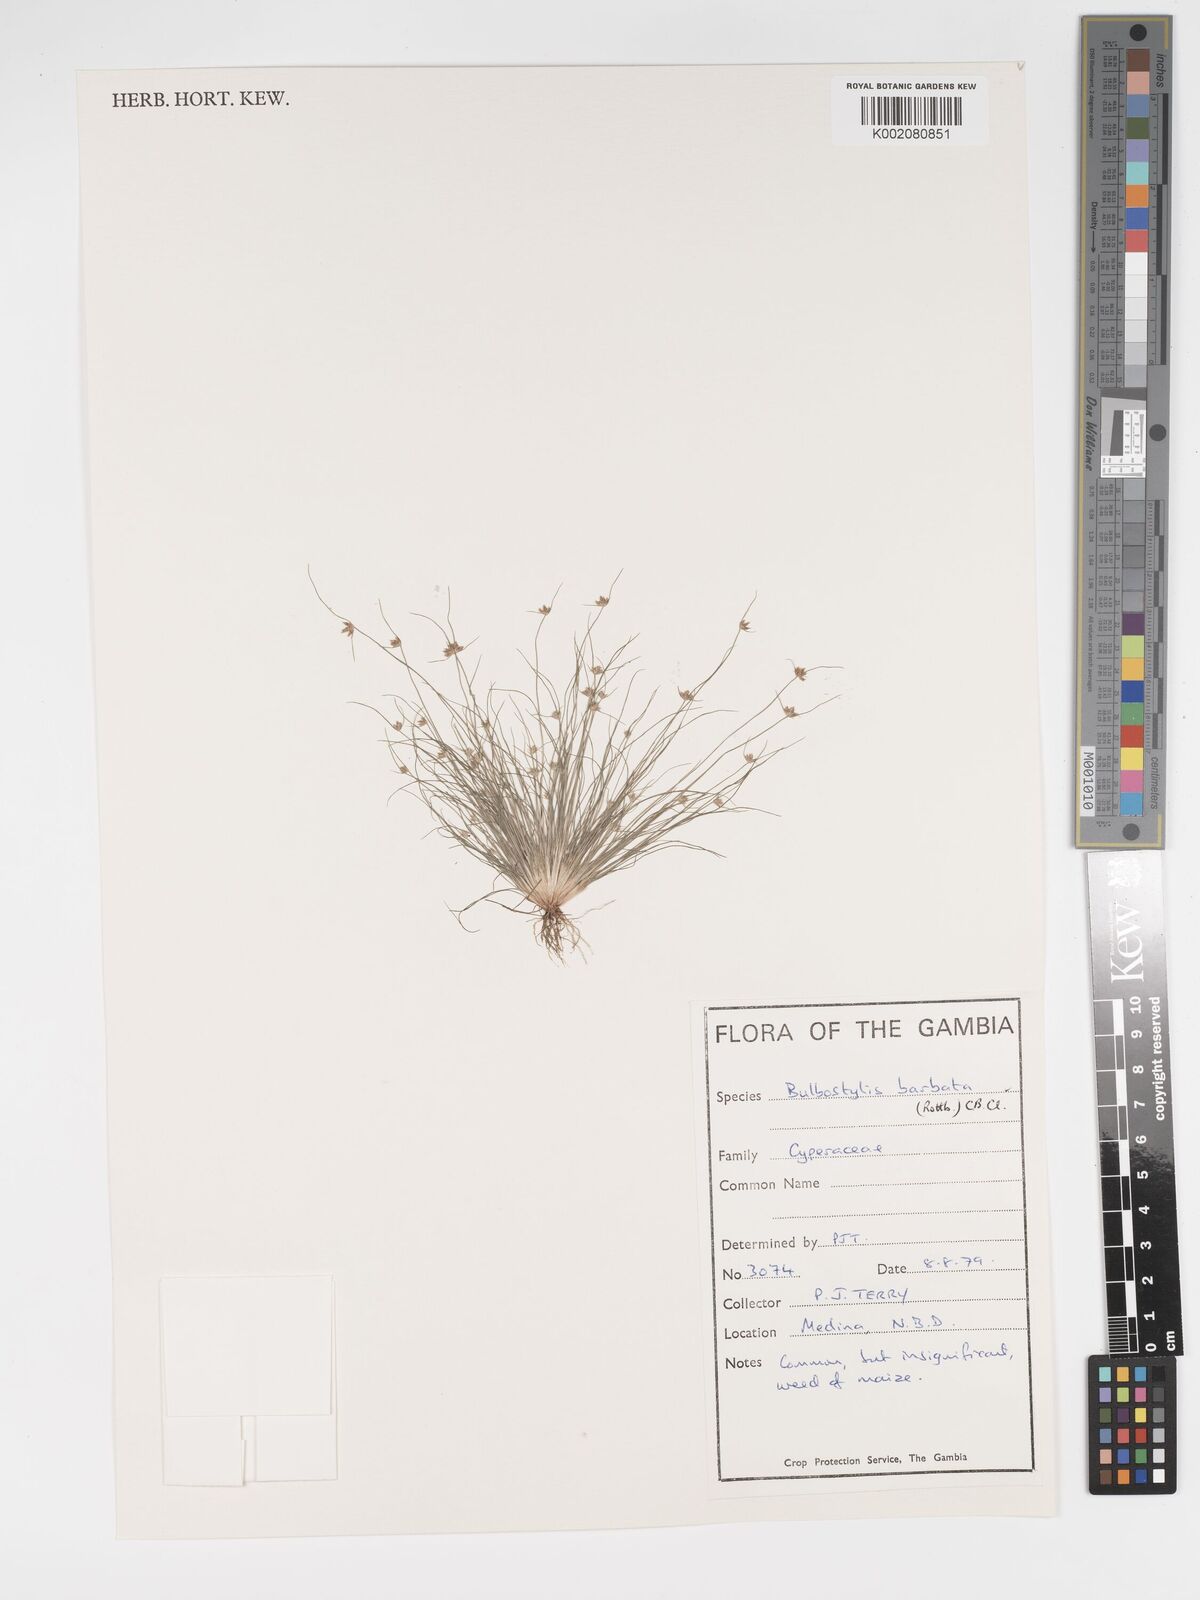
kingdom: Plantae
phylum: Tracheophyta
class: Liliopsida
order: Poales
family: Cyperaceae
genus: Bulbostylis
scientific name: Bulbostylis barbata
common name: Watergrass
